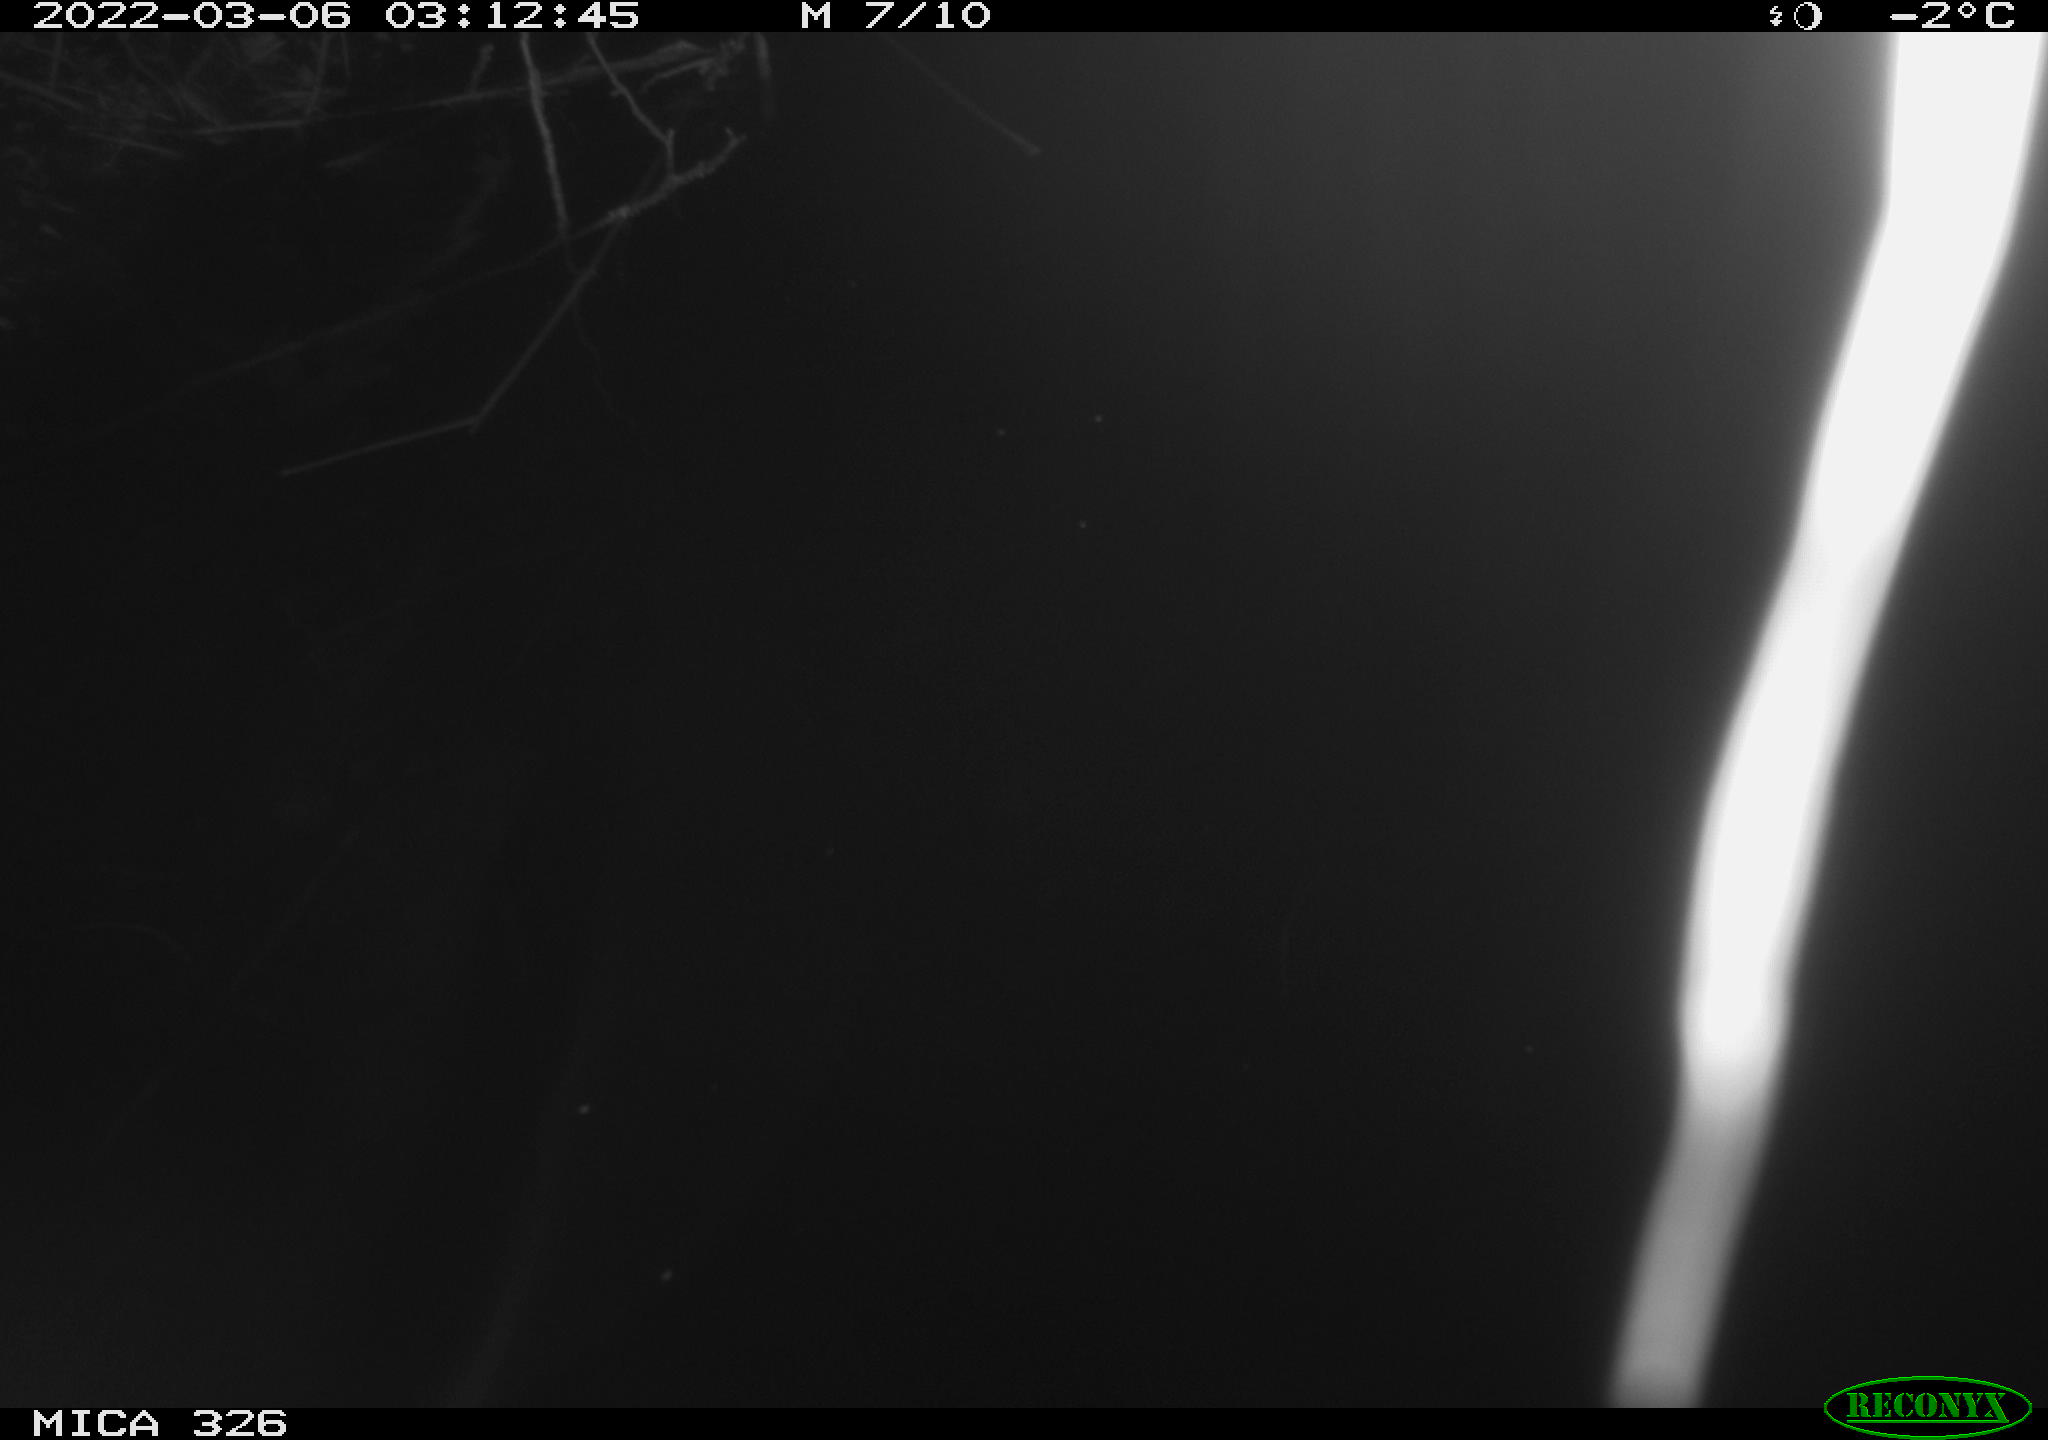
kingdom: Animalia
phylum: Chordata
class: Mammalia
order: Rodentia
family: Cricetidae
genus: Ondatra
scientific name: Ondatra zibethicus
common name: Muskrat
